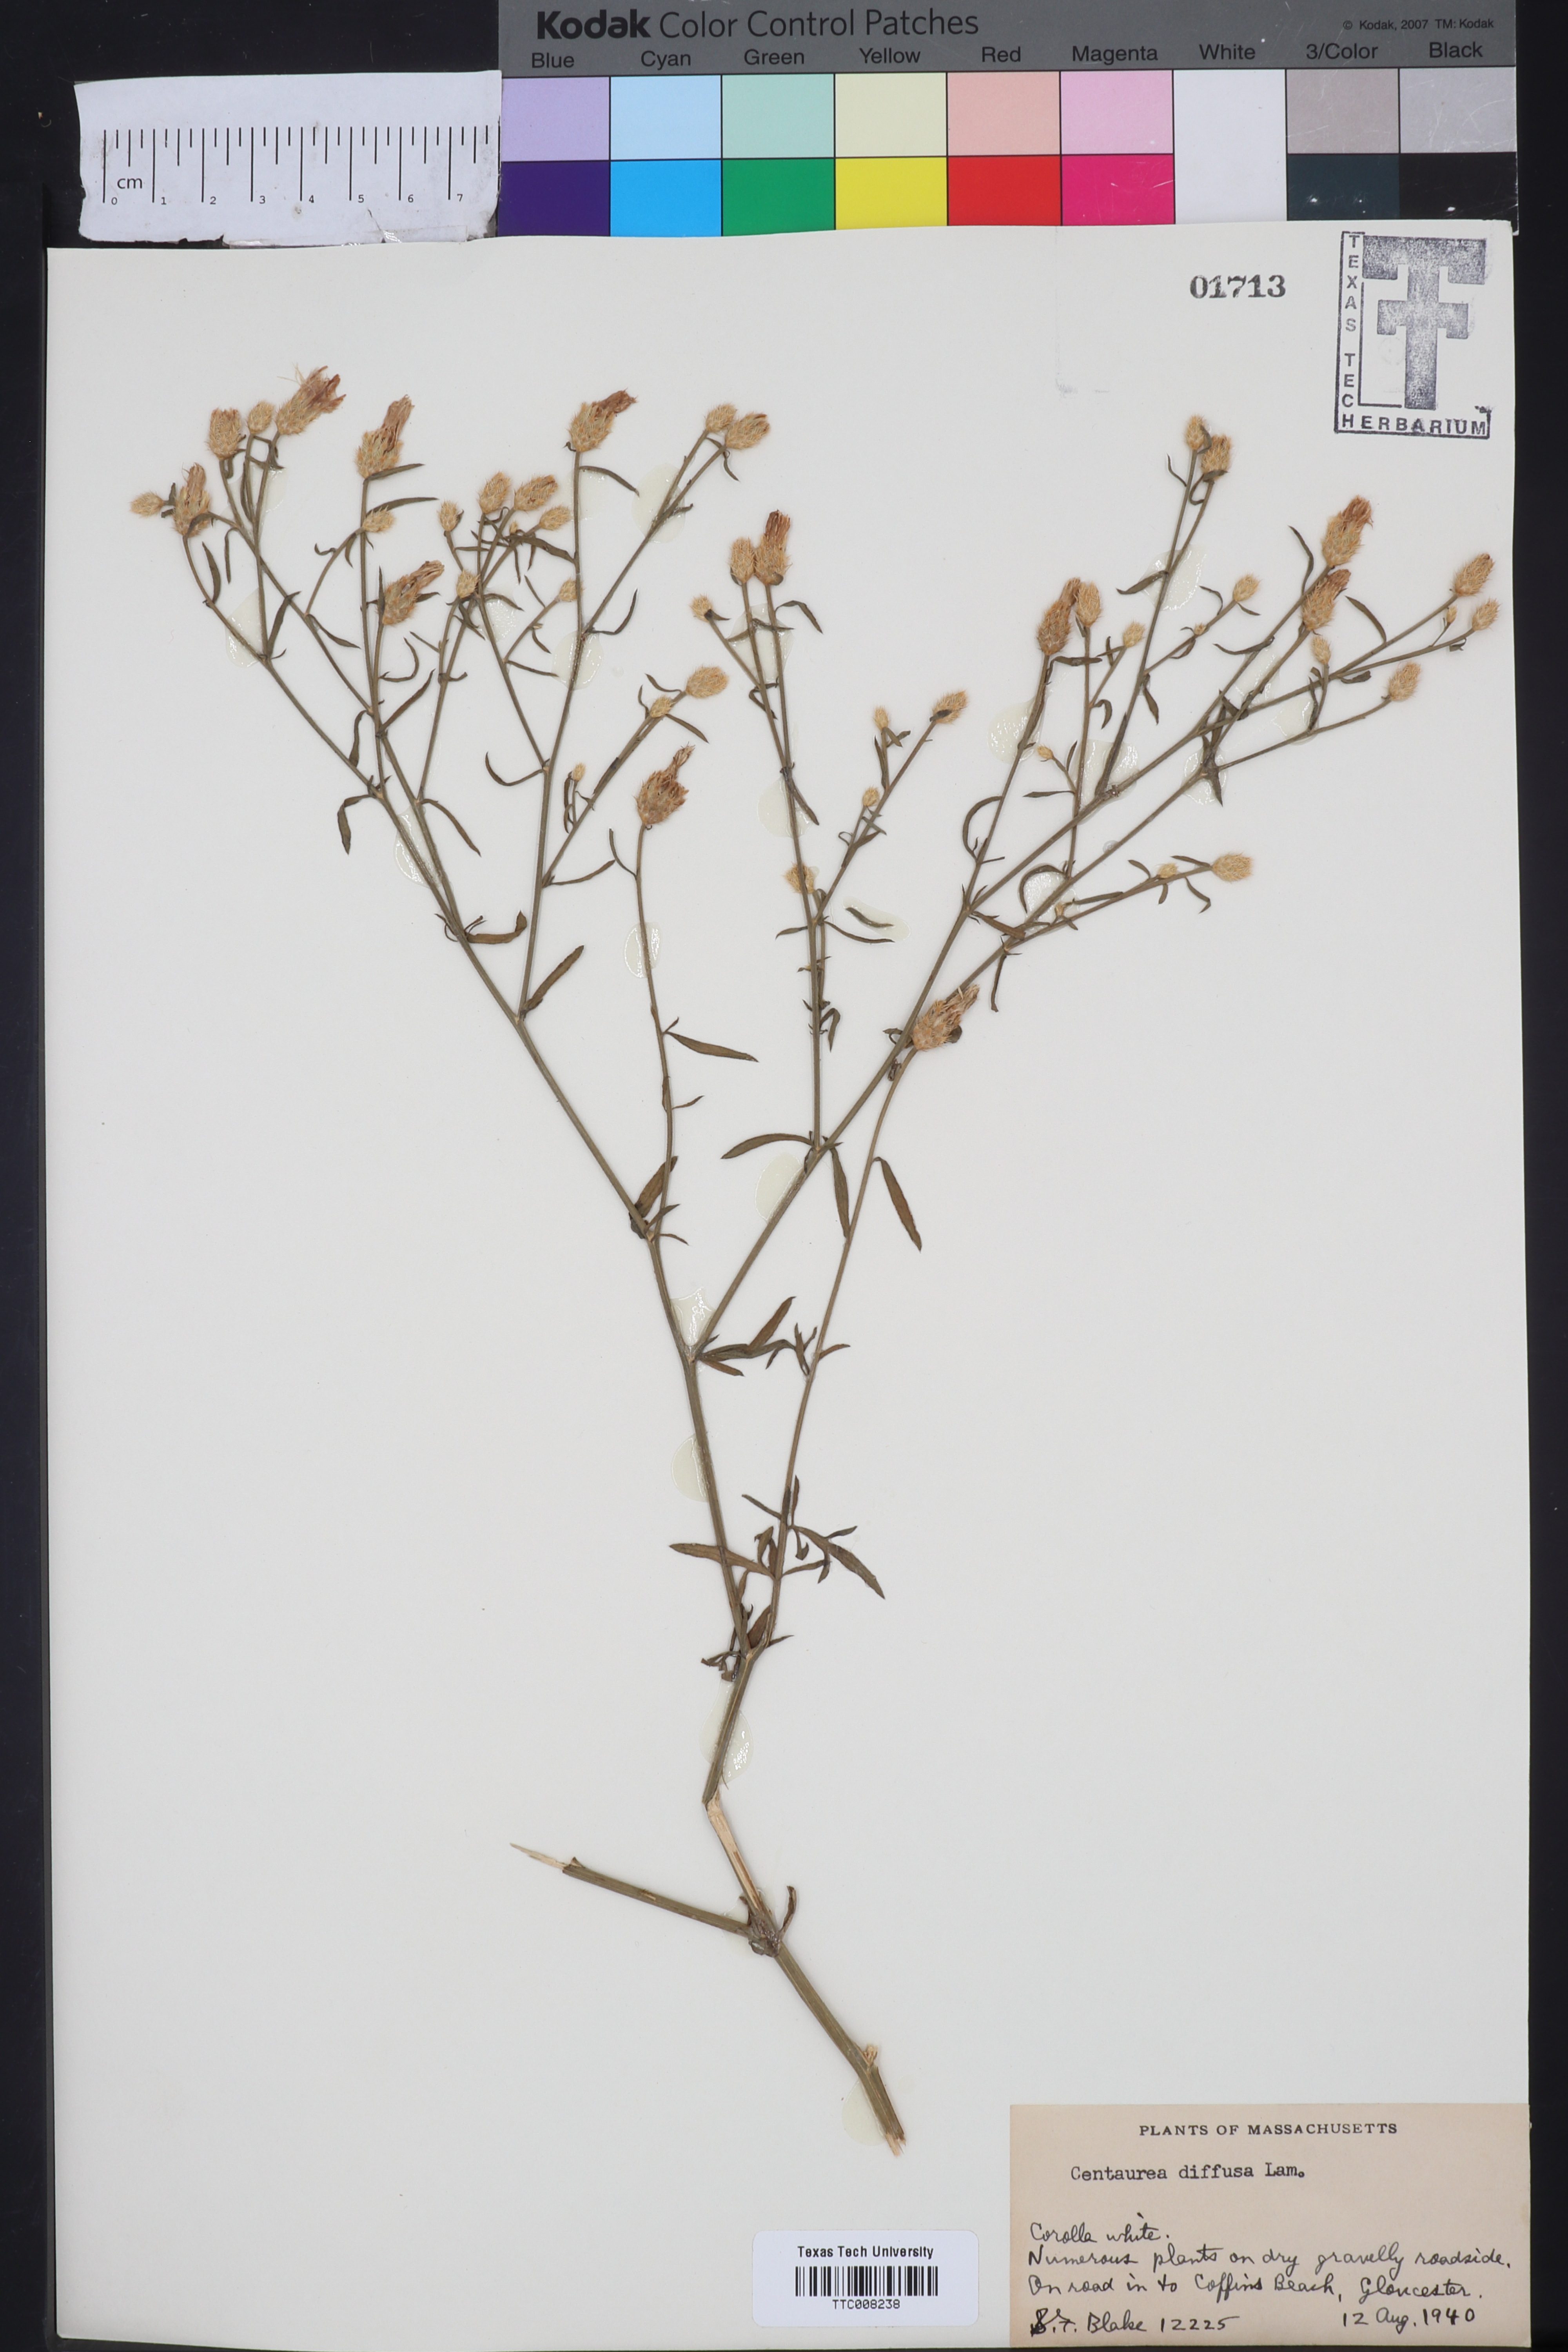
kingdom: Plantae
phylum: Tracheophyta
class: Magnoliopsida
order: Asterales
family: Asteraceae
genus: Centaurea
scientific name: Centaurea diffusa
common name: Diffuse knapweed
